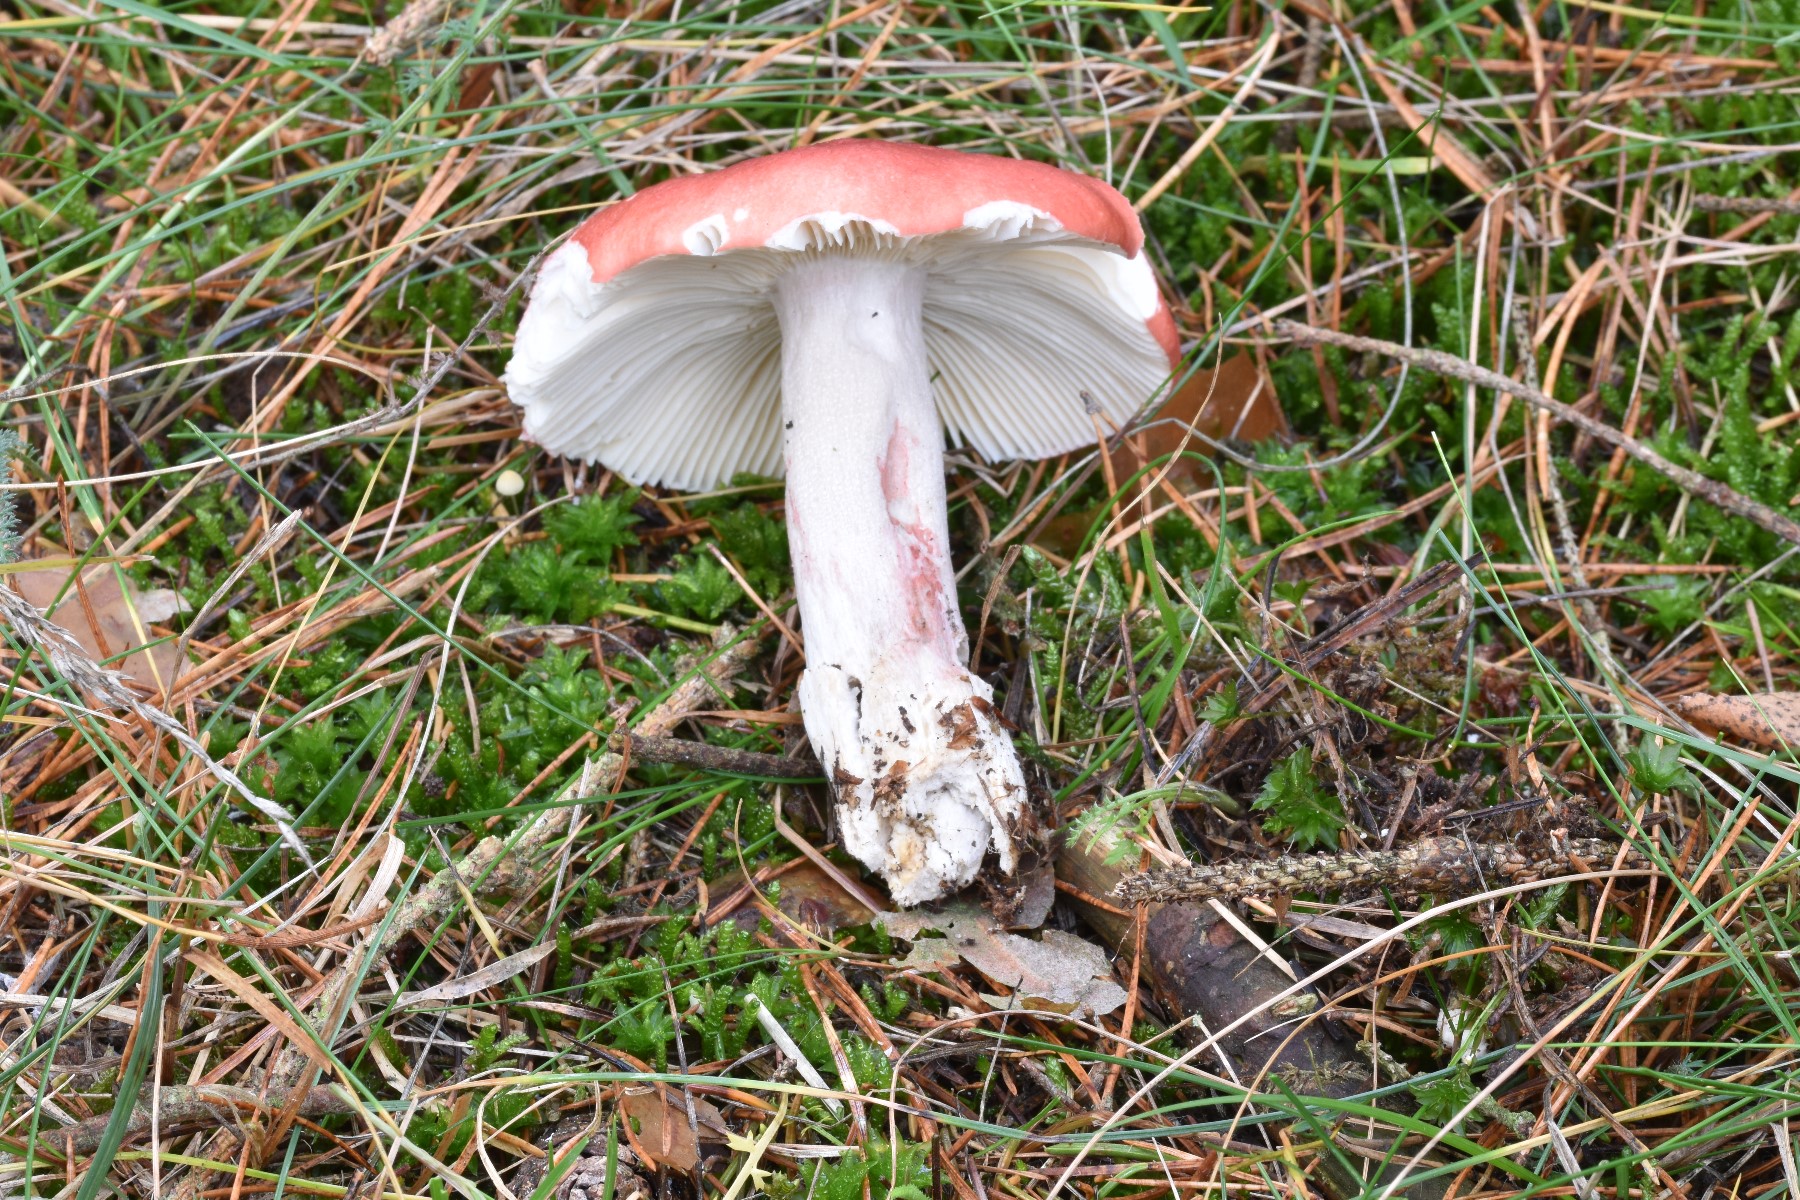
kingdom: Fungi
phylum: Basidiomycota
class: Agaricomycetes
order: Russulales
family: Russulaceae
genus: Russula
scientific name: Russula sanguinea
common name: blodrød skørhat
